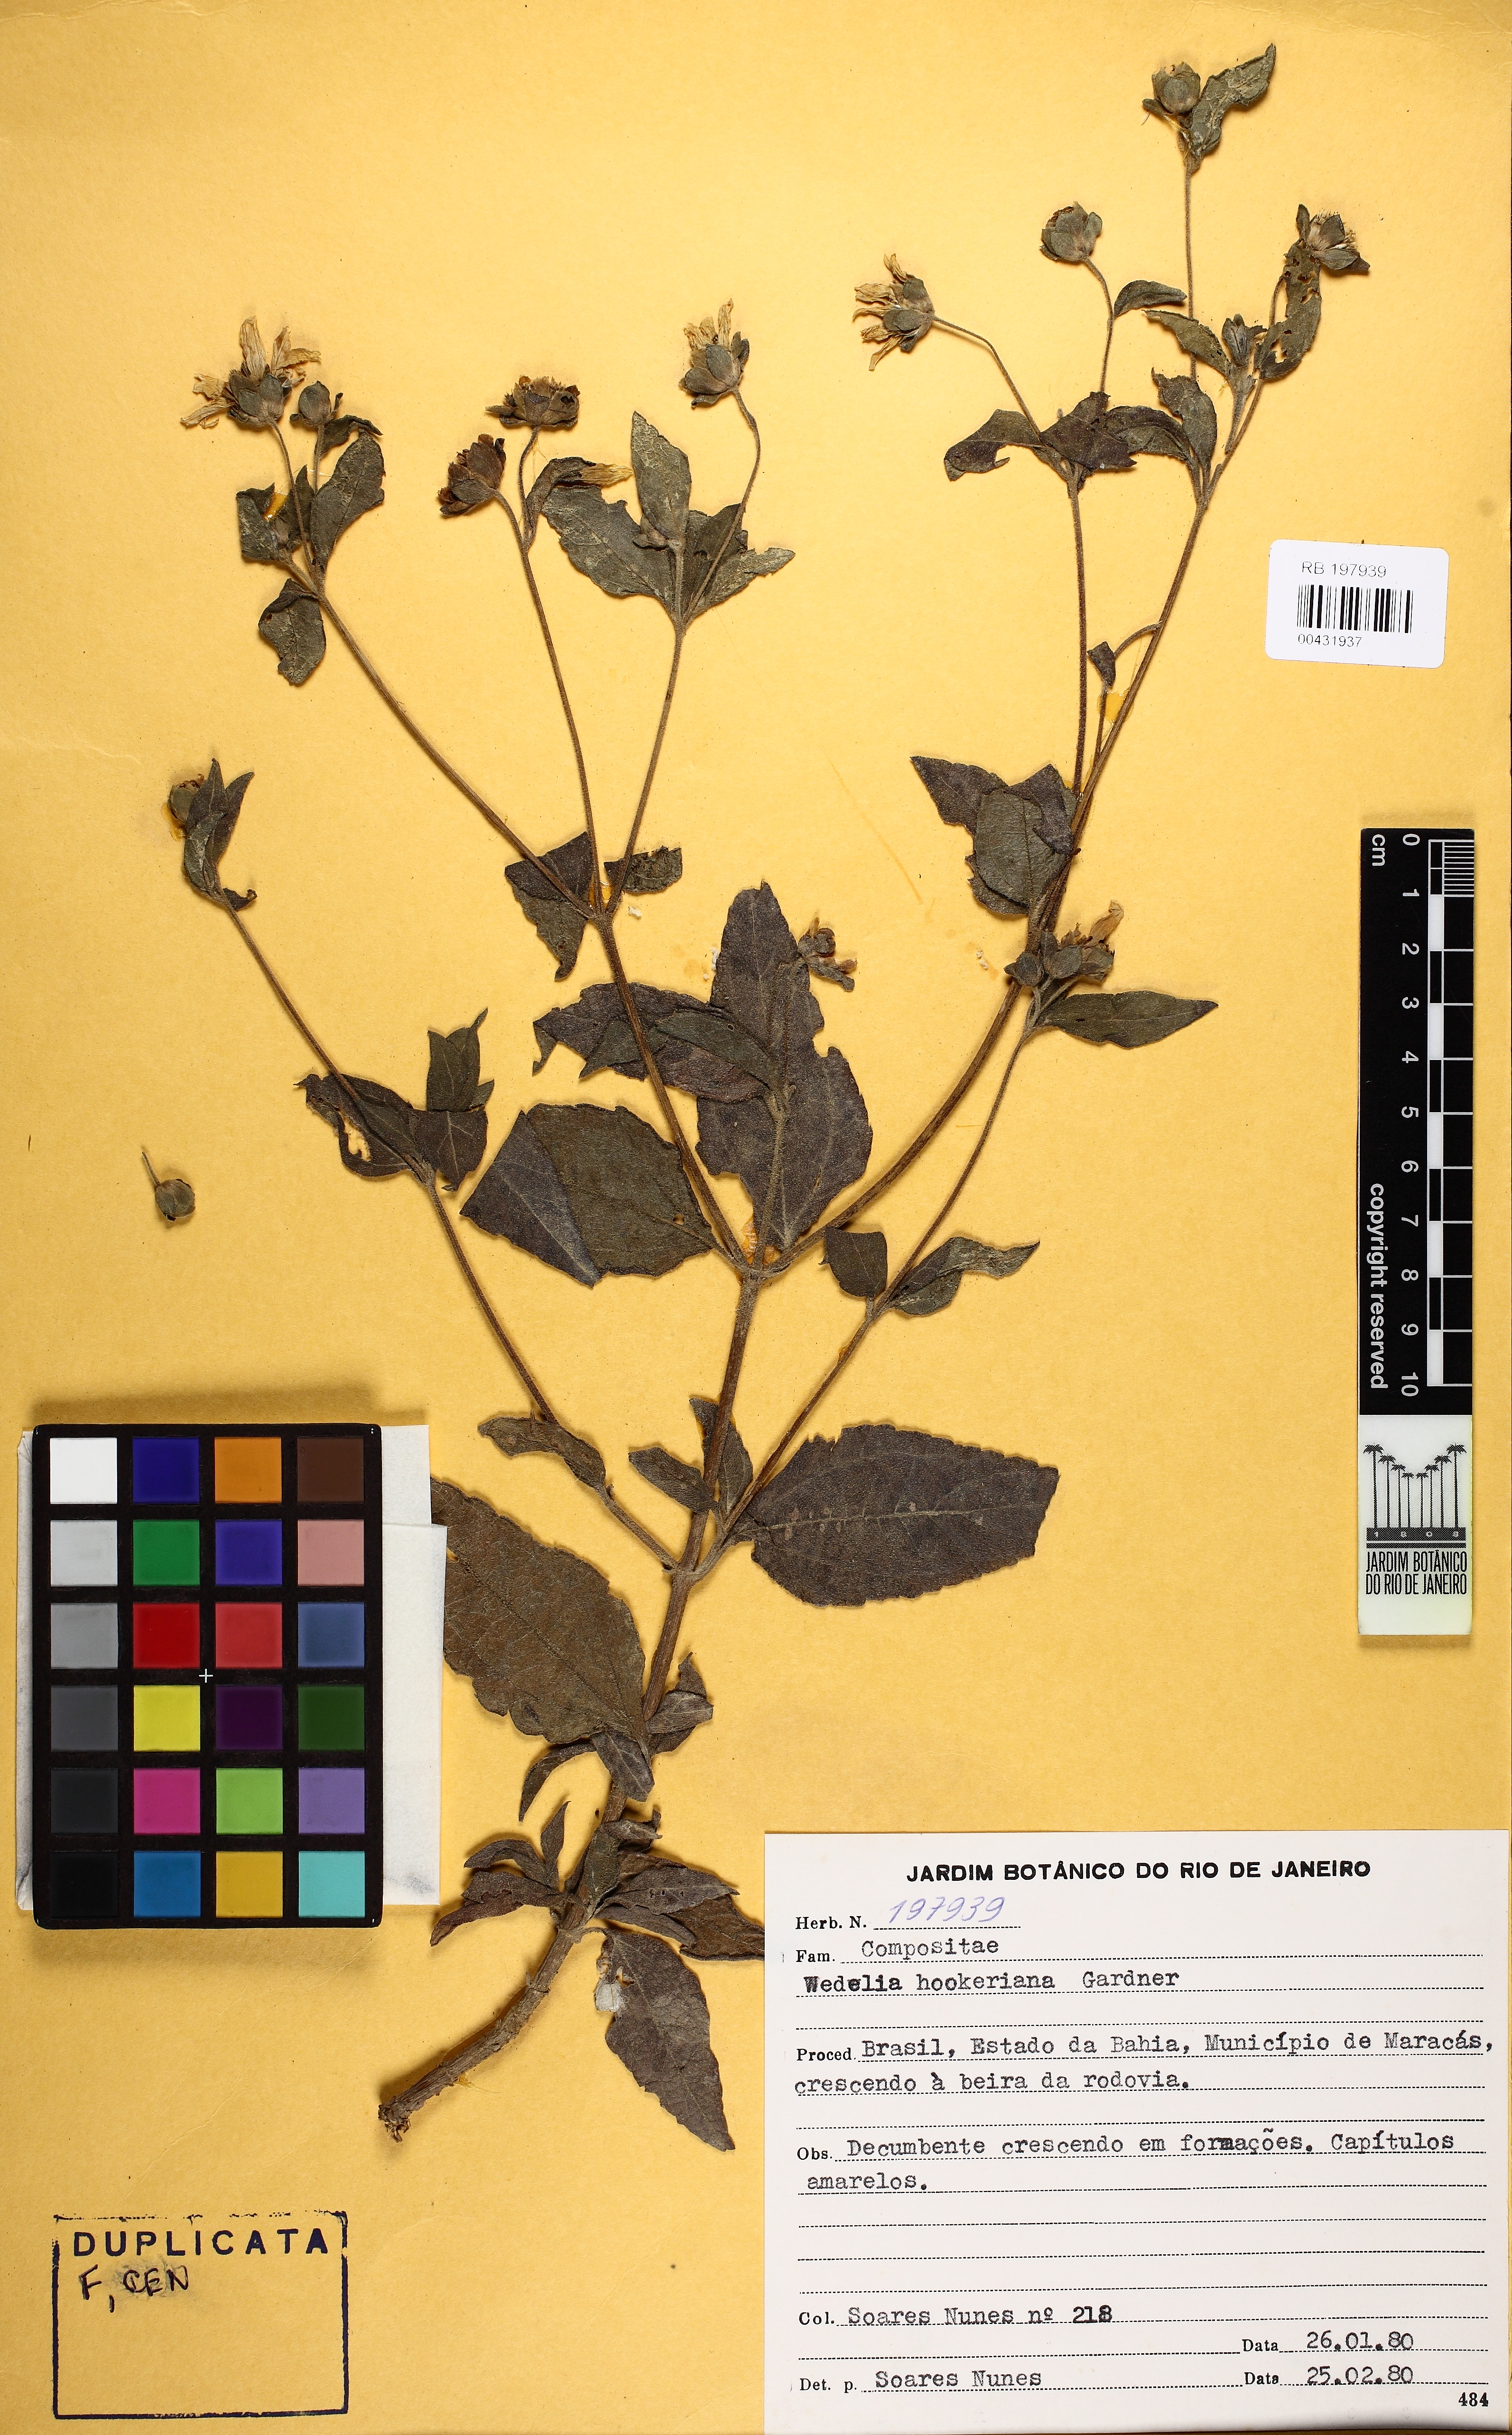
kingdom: Plantae
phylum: Tracheophyta
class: Magnoliopsida
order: Asterales
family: Asteraceae
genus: Wedelia
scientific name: Wedelia goyazensis
